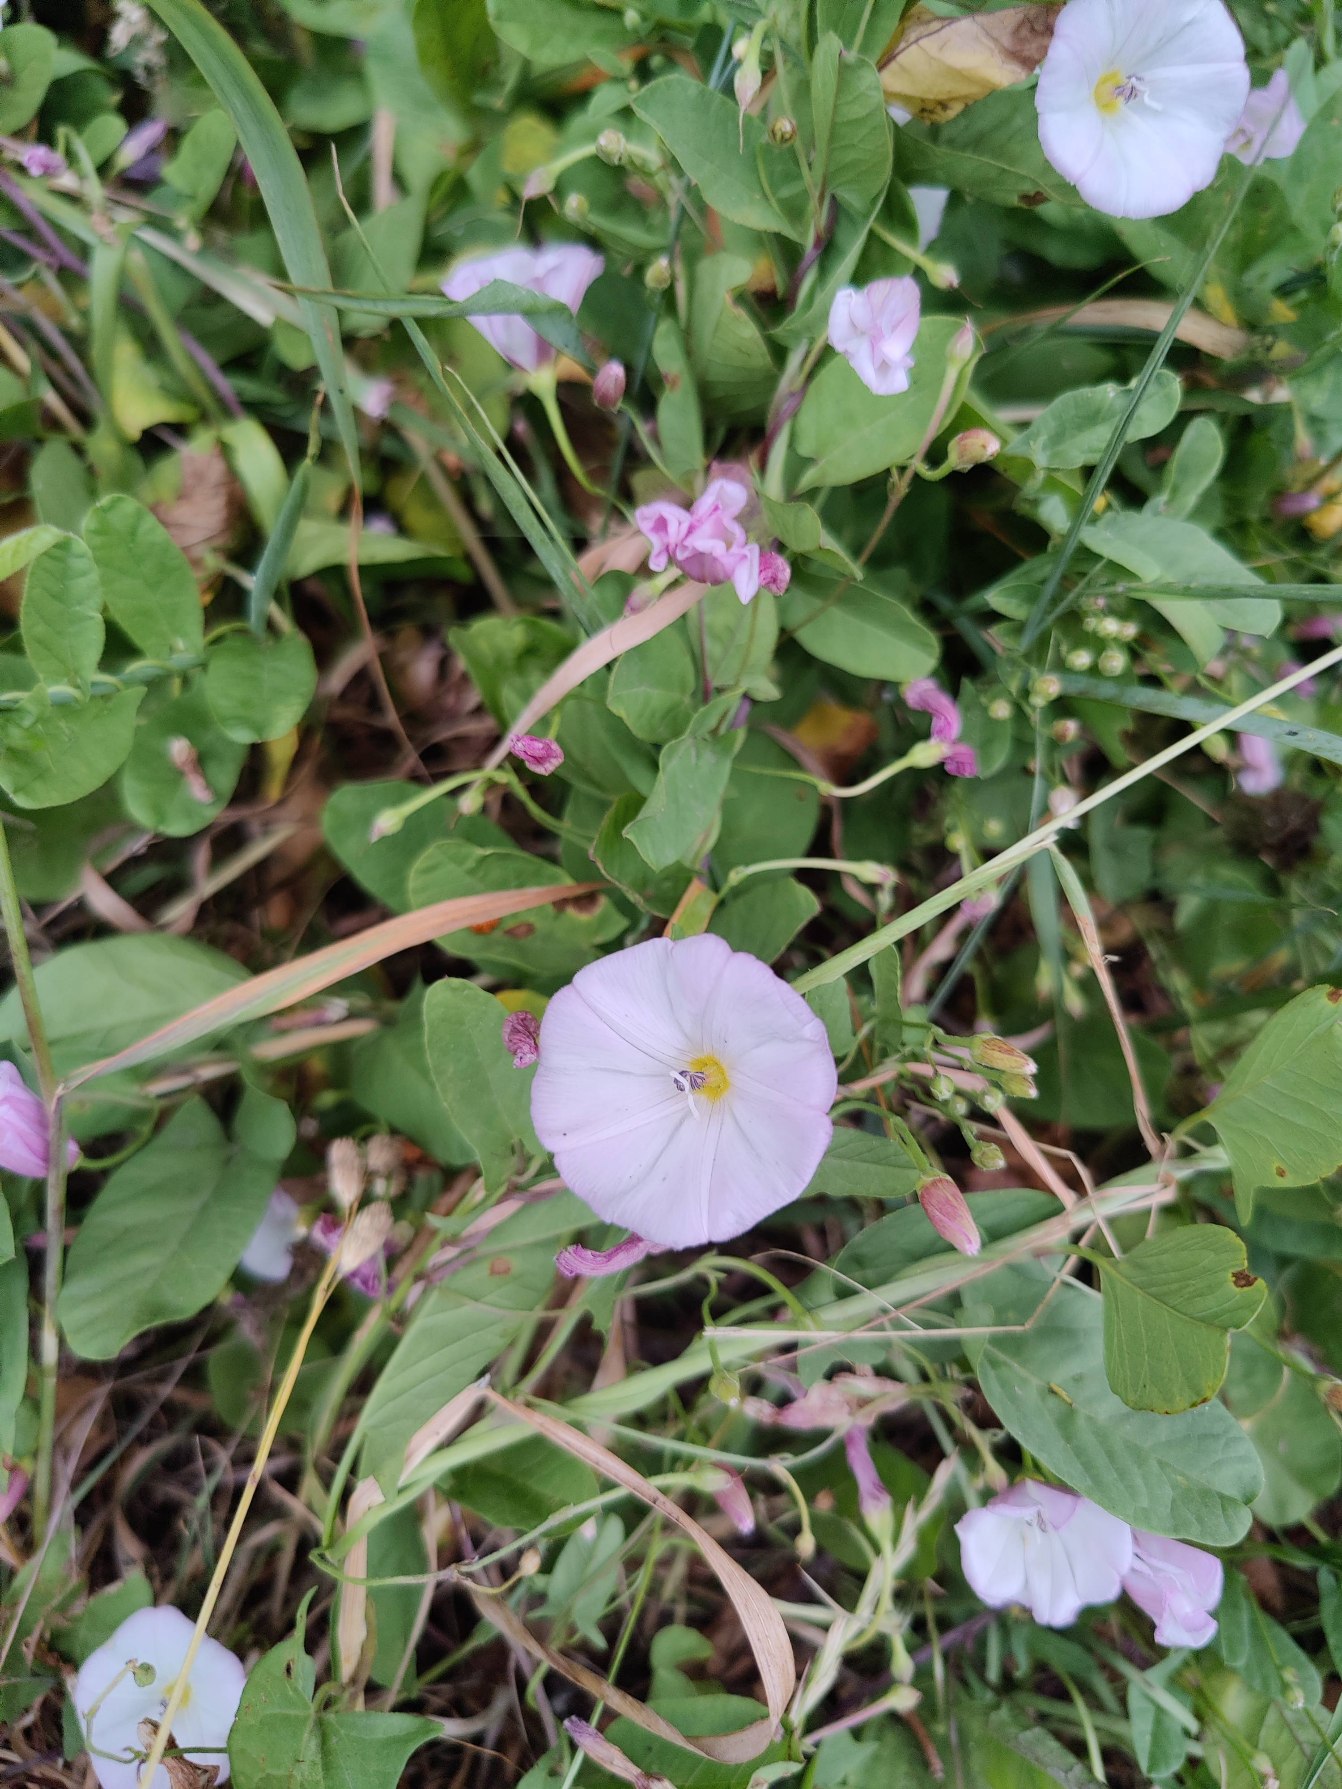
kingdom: Plantae
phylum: Tracheophyta
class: Magnoliopsida
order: Solanales
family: Convolvulaceae
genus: Convolvulus
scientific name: Convolvulus arvensis
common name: Ager-snerle
